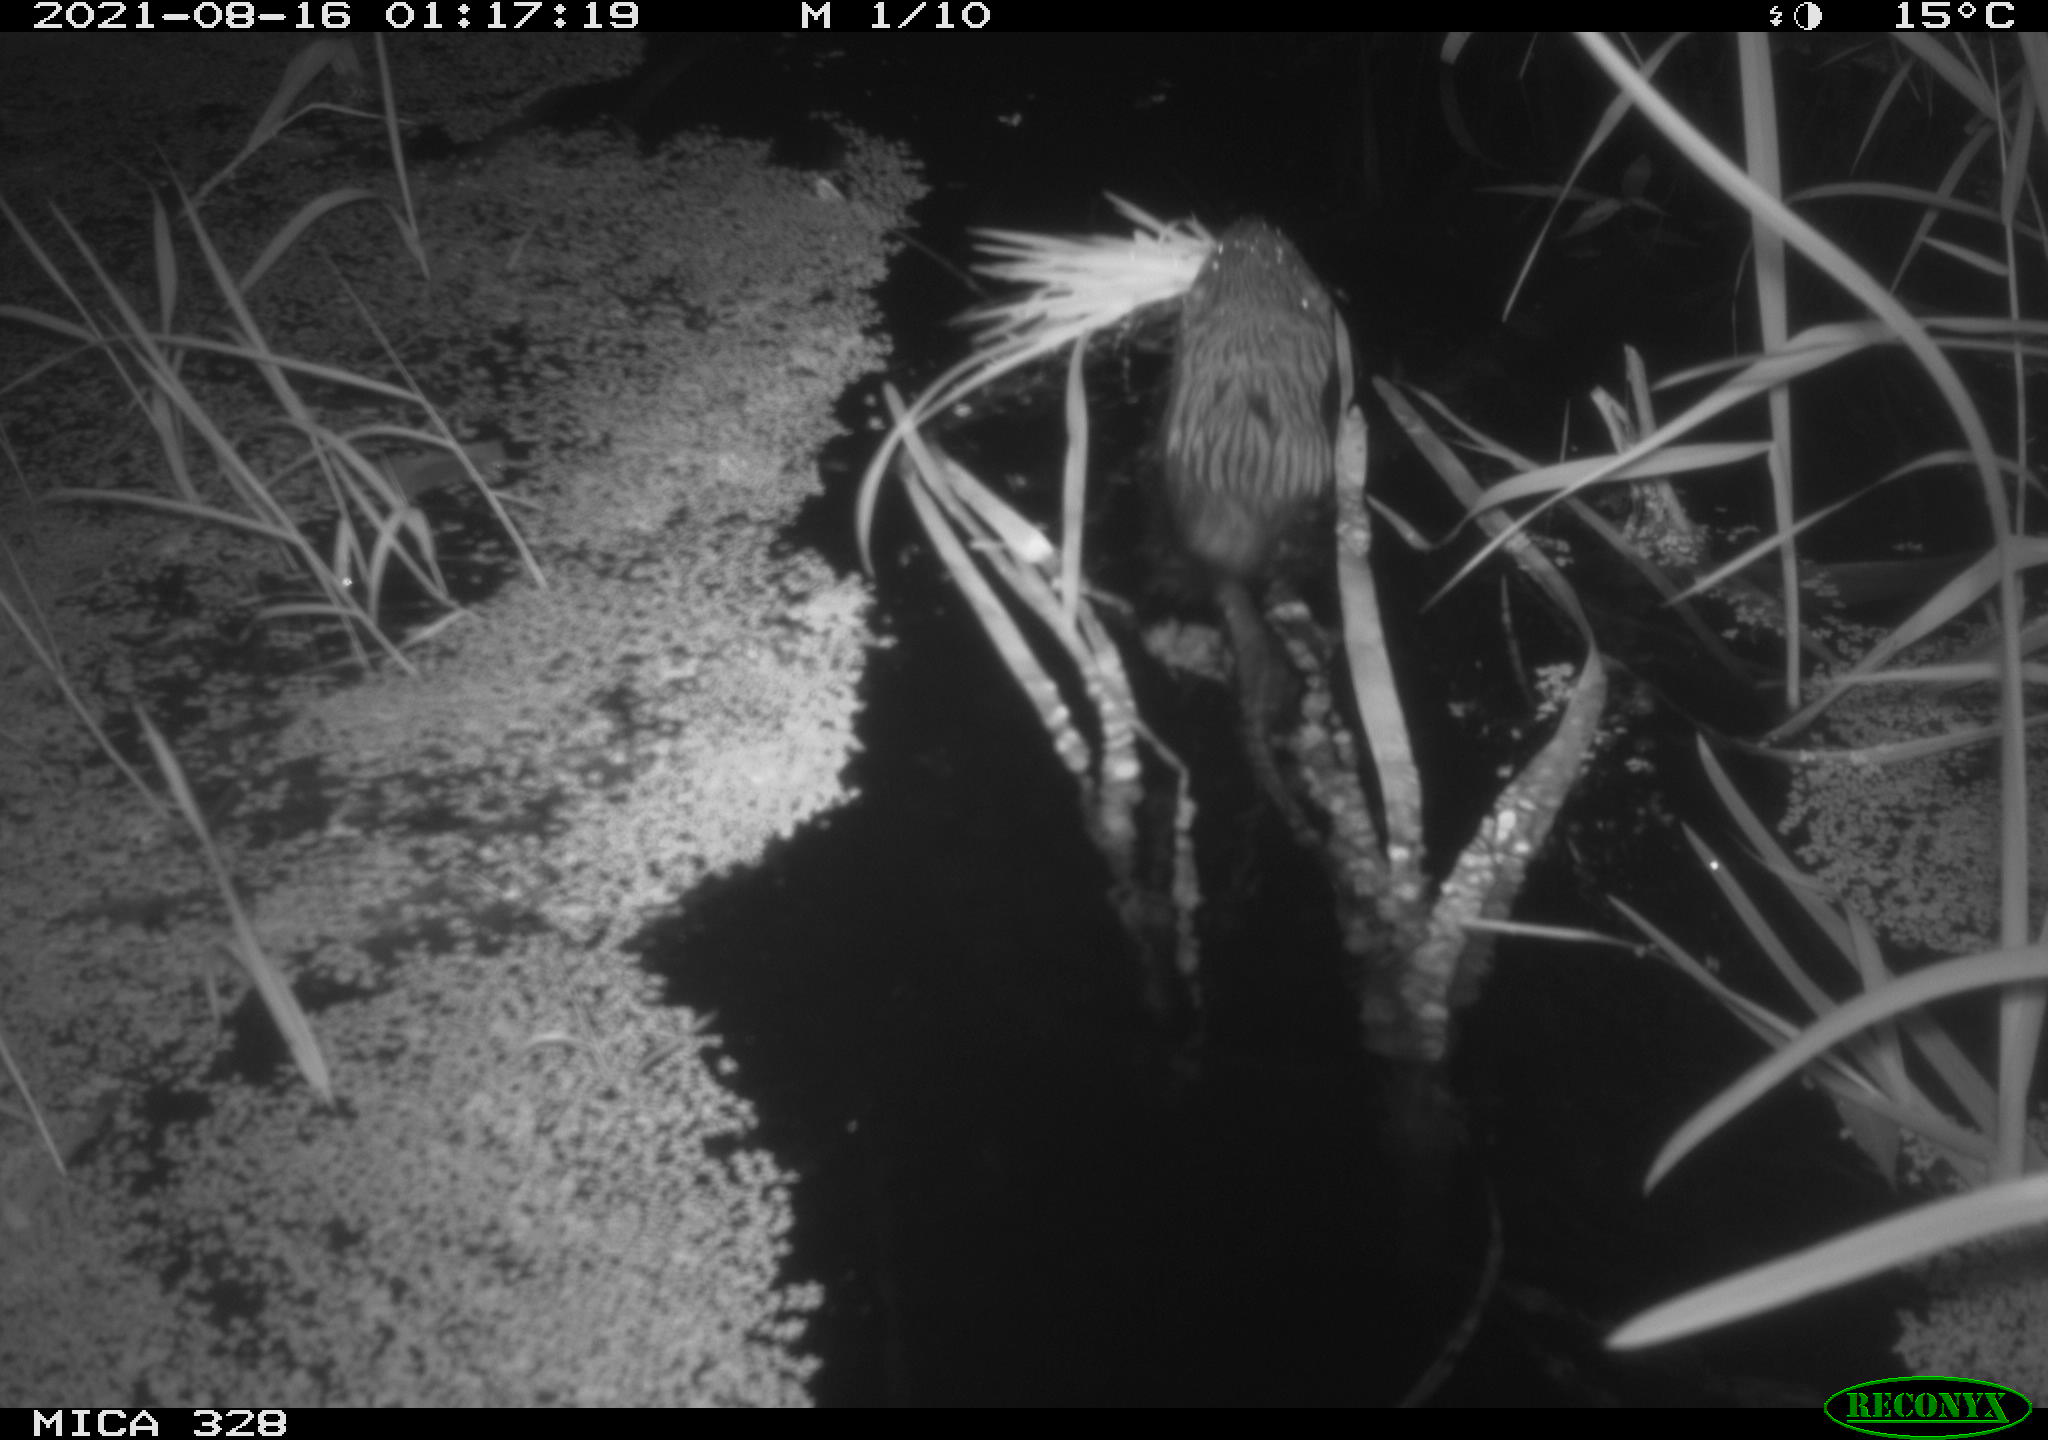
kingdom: Animalia
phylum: Chordata
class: Mammalia
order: Rodentia
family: Cricetidae
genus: Ondatra
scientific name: Ondatra zibethicus
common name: Muskrat
